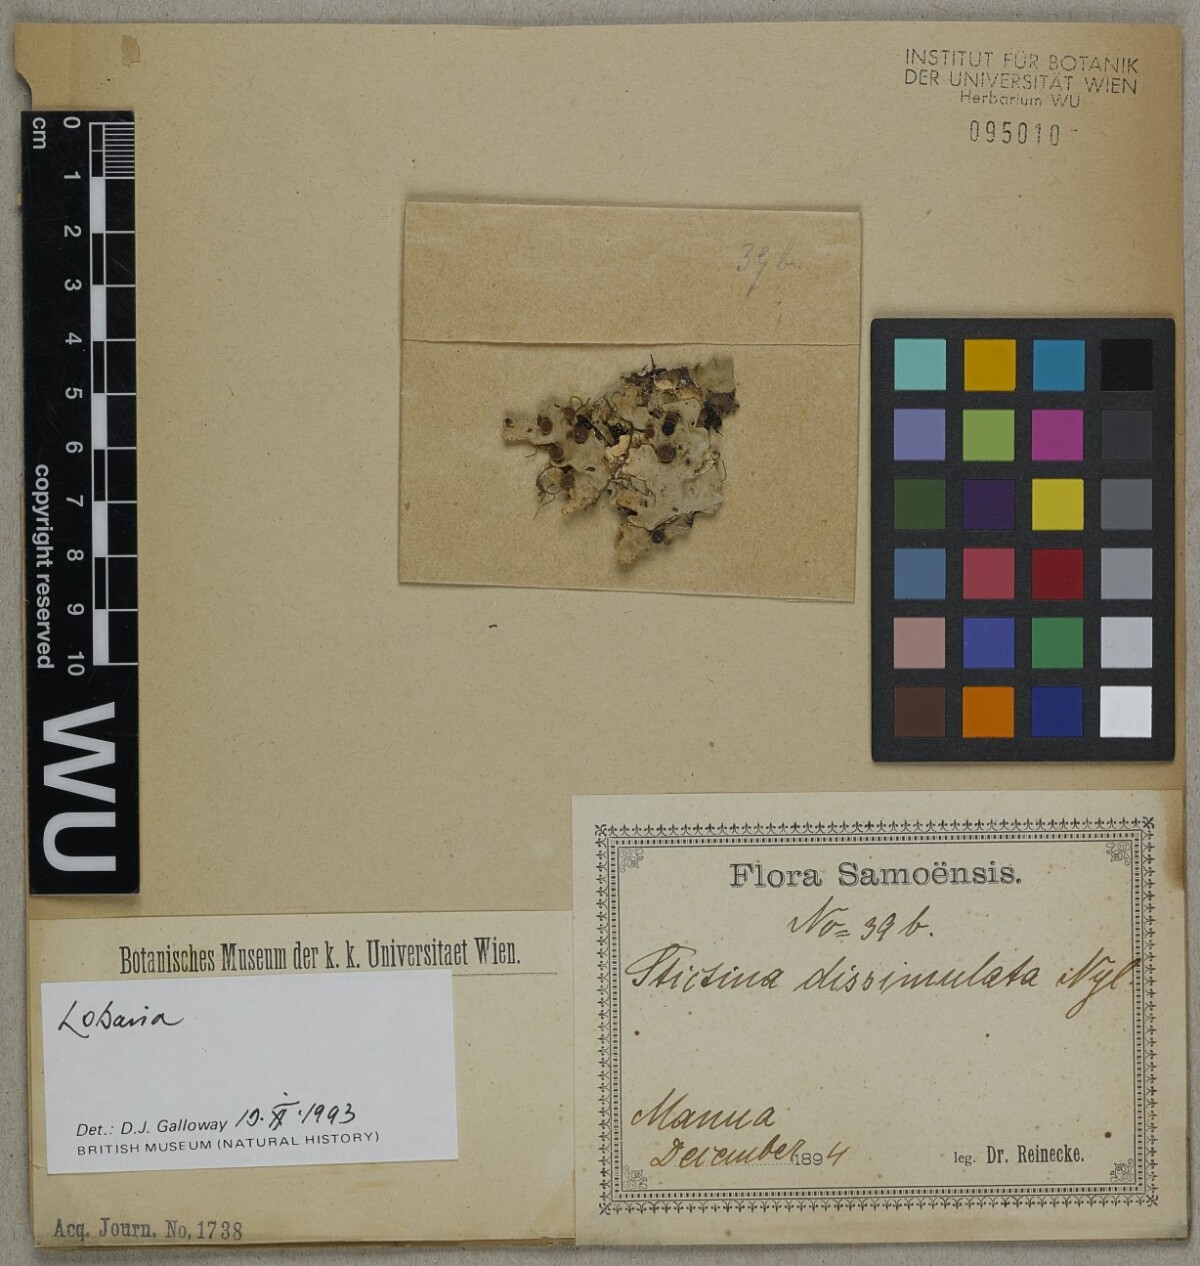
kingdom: Fungi
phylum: Ascomycota
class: Lecanoromycetes
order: Peltigerales
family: Lobariaceae
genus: Lobaria
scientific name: Lobaria
